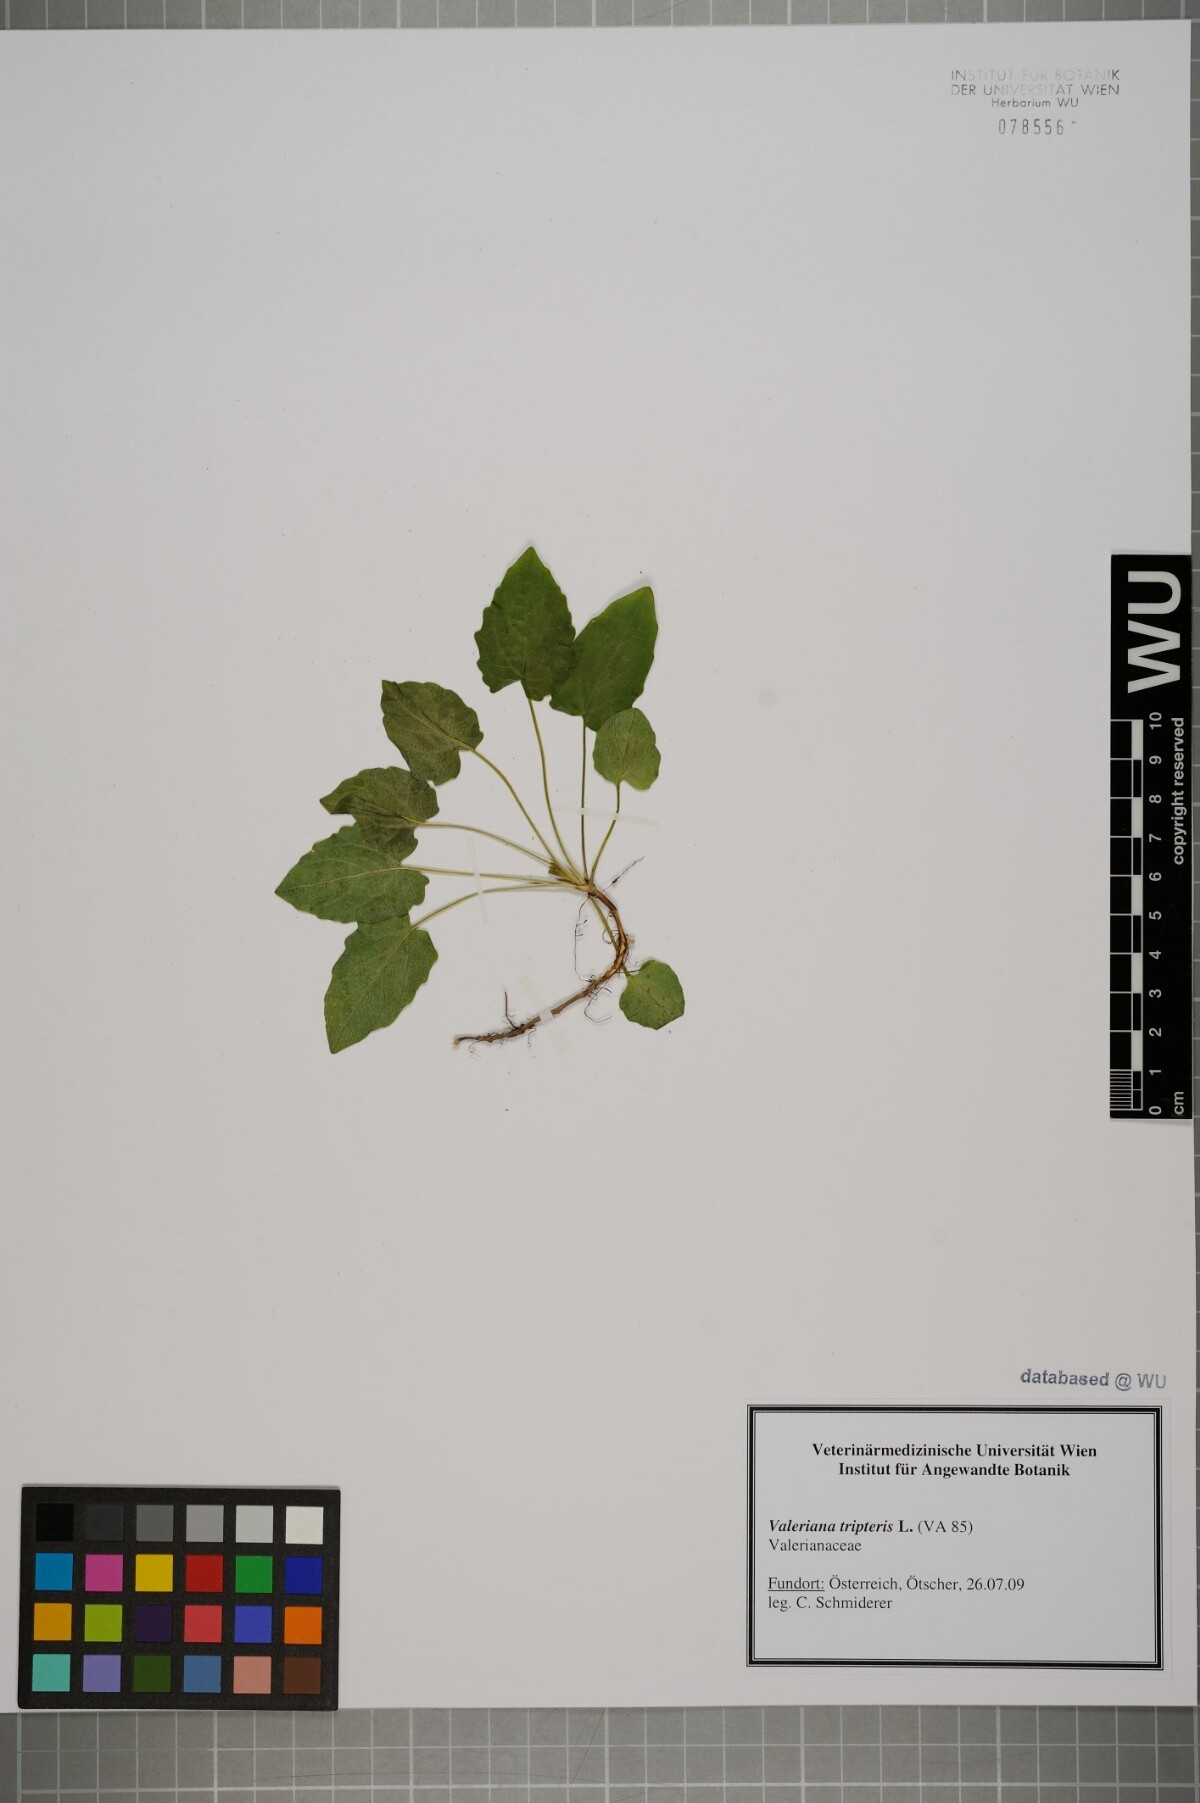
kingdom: Plantae
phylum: Tracheophyta
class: Magnoliopsida
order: Dipsacales
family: Caprifoliaceae
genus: Valeriana
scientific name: Valeriana tripteris
